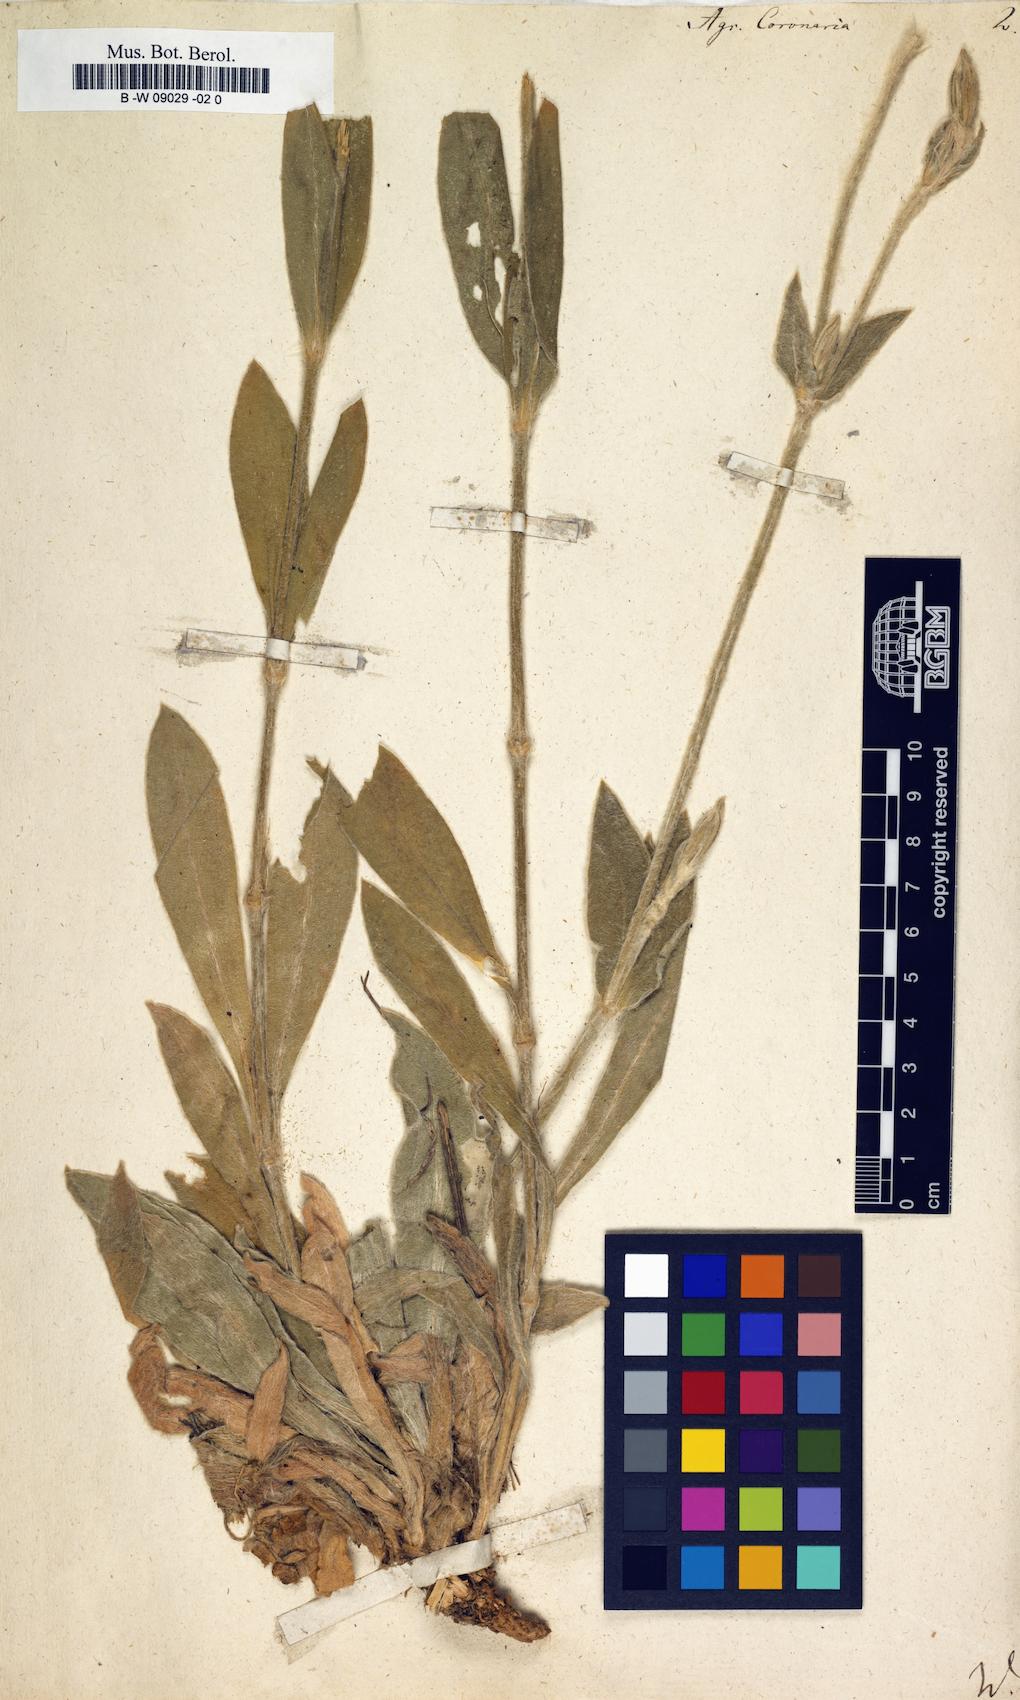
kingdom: Plantae
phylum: Tracheophyta
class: Magnoliopsida
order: Caryophyllales
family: Caryophyllaceae
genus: Silene
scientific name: Silene coronaria
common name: Rose campion
